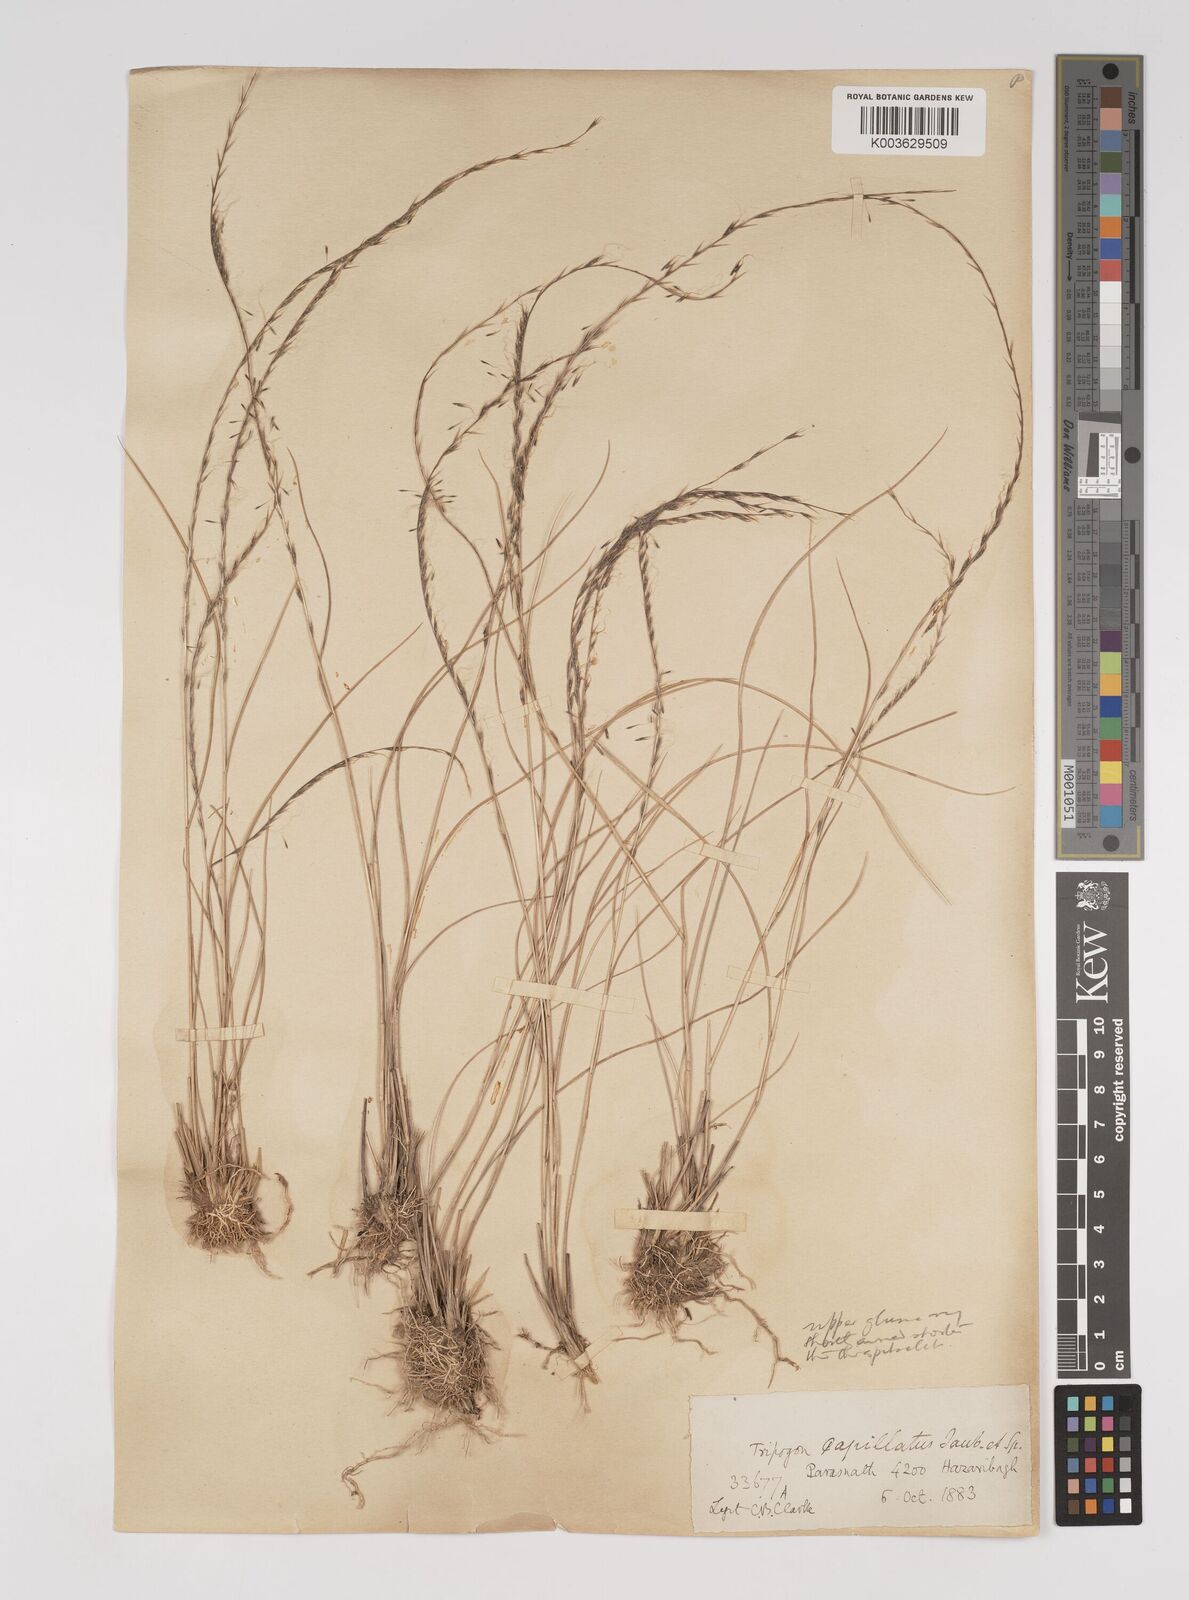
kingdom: Plantae
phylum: Tracheophyta
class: Liliopsida
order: Poales
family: Poaceae
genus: Tripogon
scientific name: Tripogon capillatus
